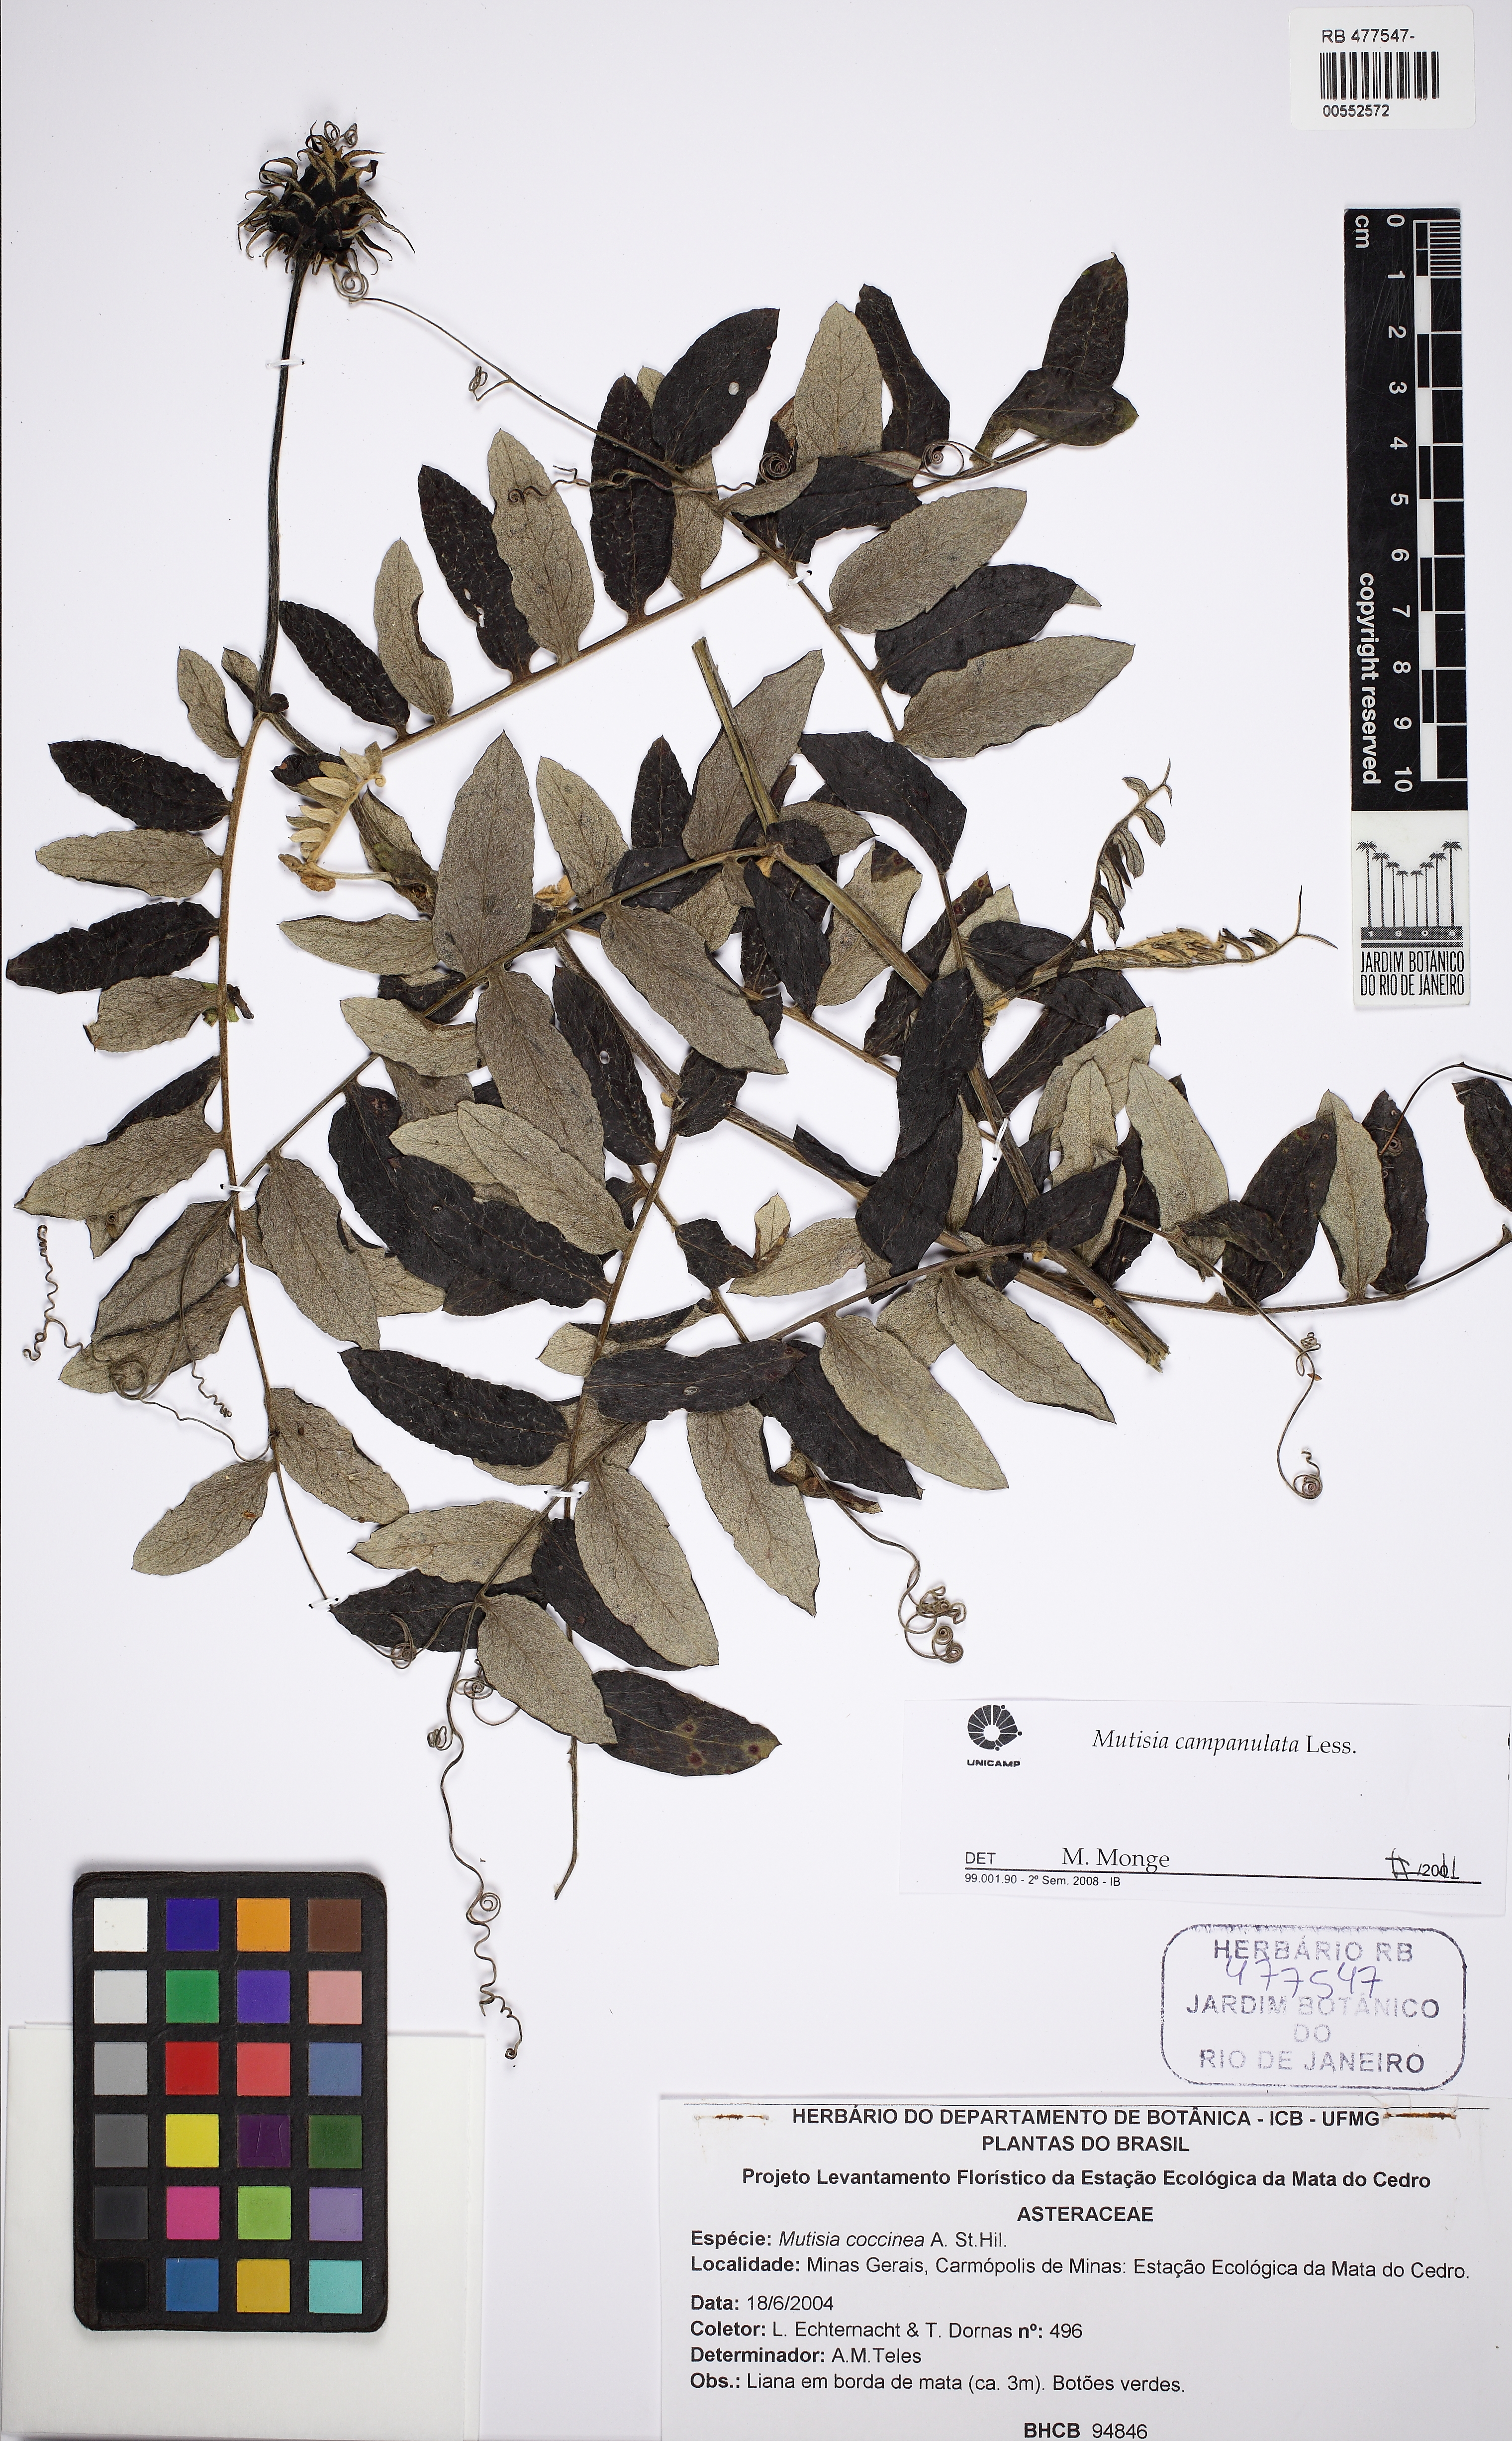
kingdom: Plantae
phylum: Tracheophyta
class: Magnoliopsida
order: Asterales
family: Asteraceae
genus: Mutisia
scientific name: Mutisia campanulata
